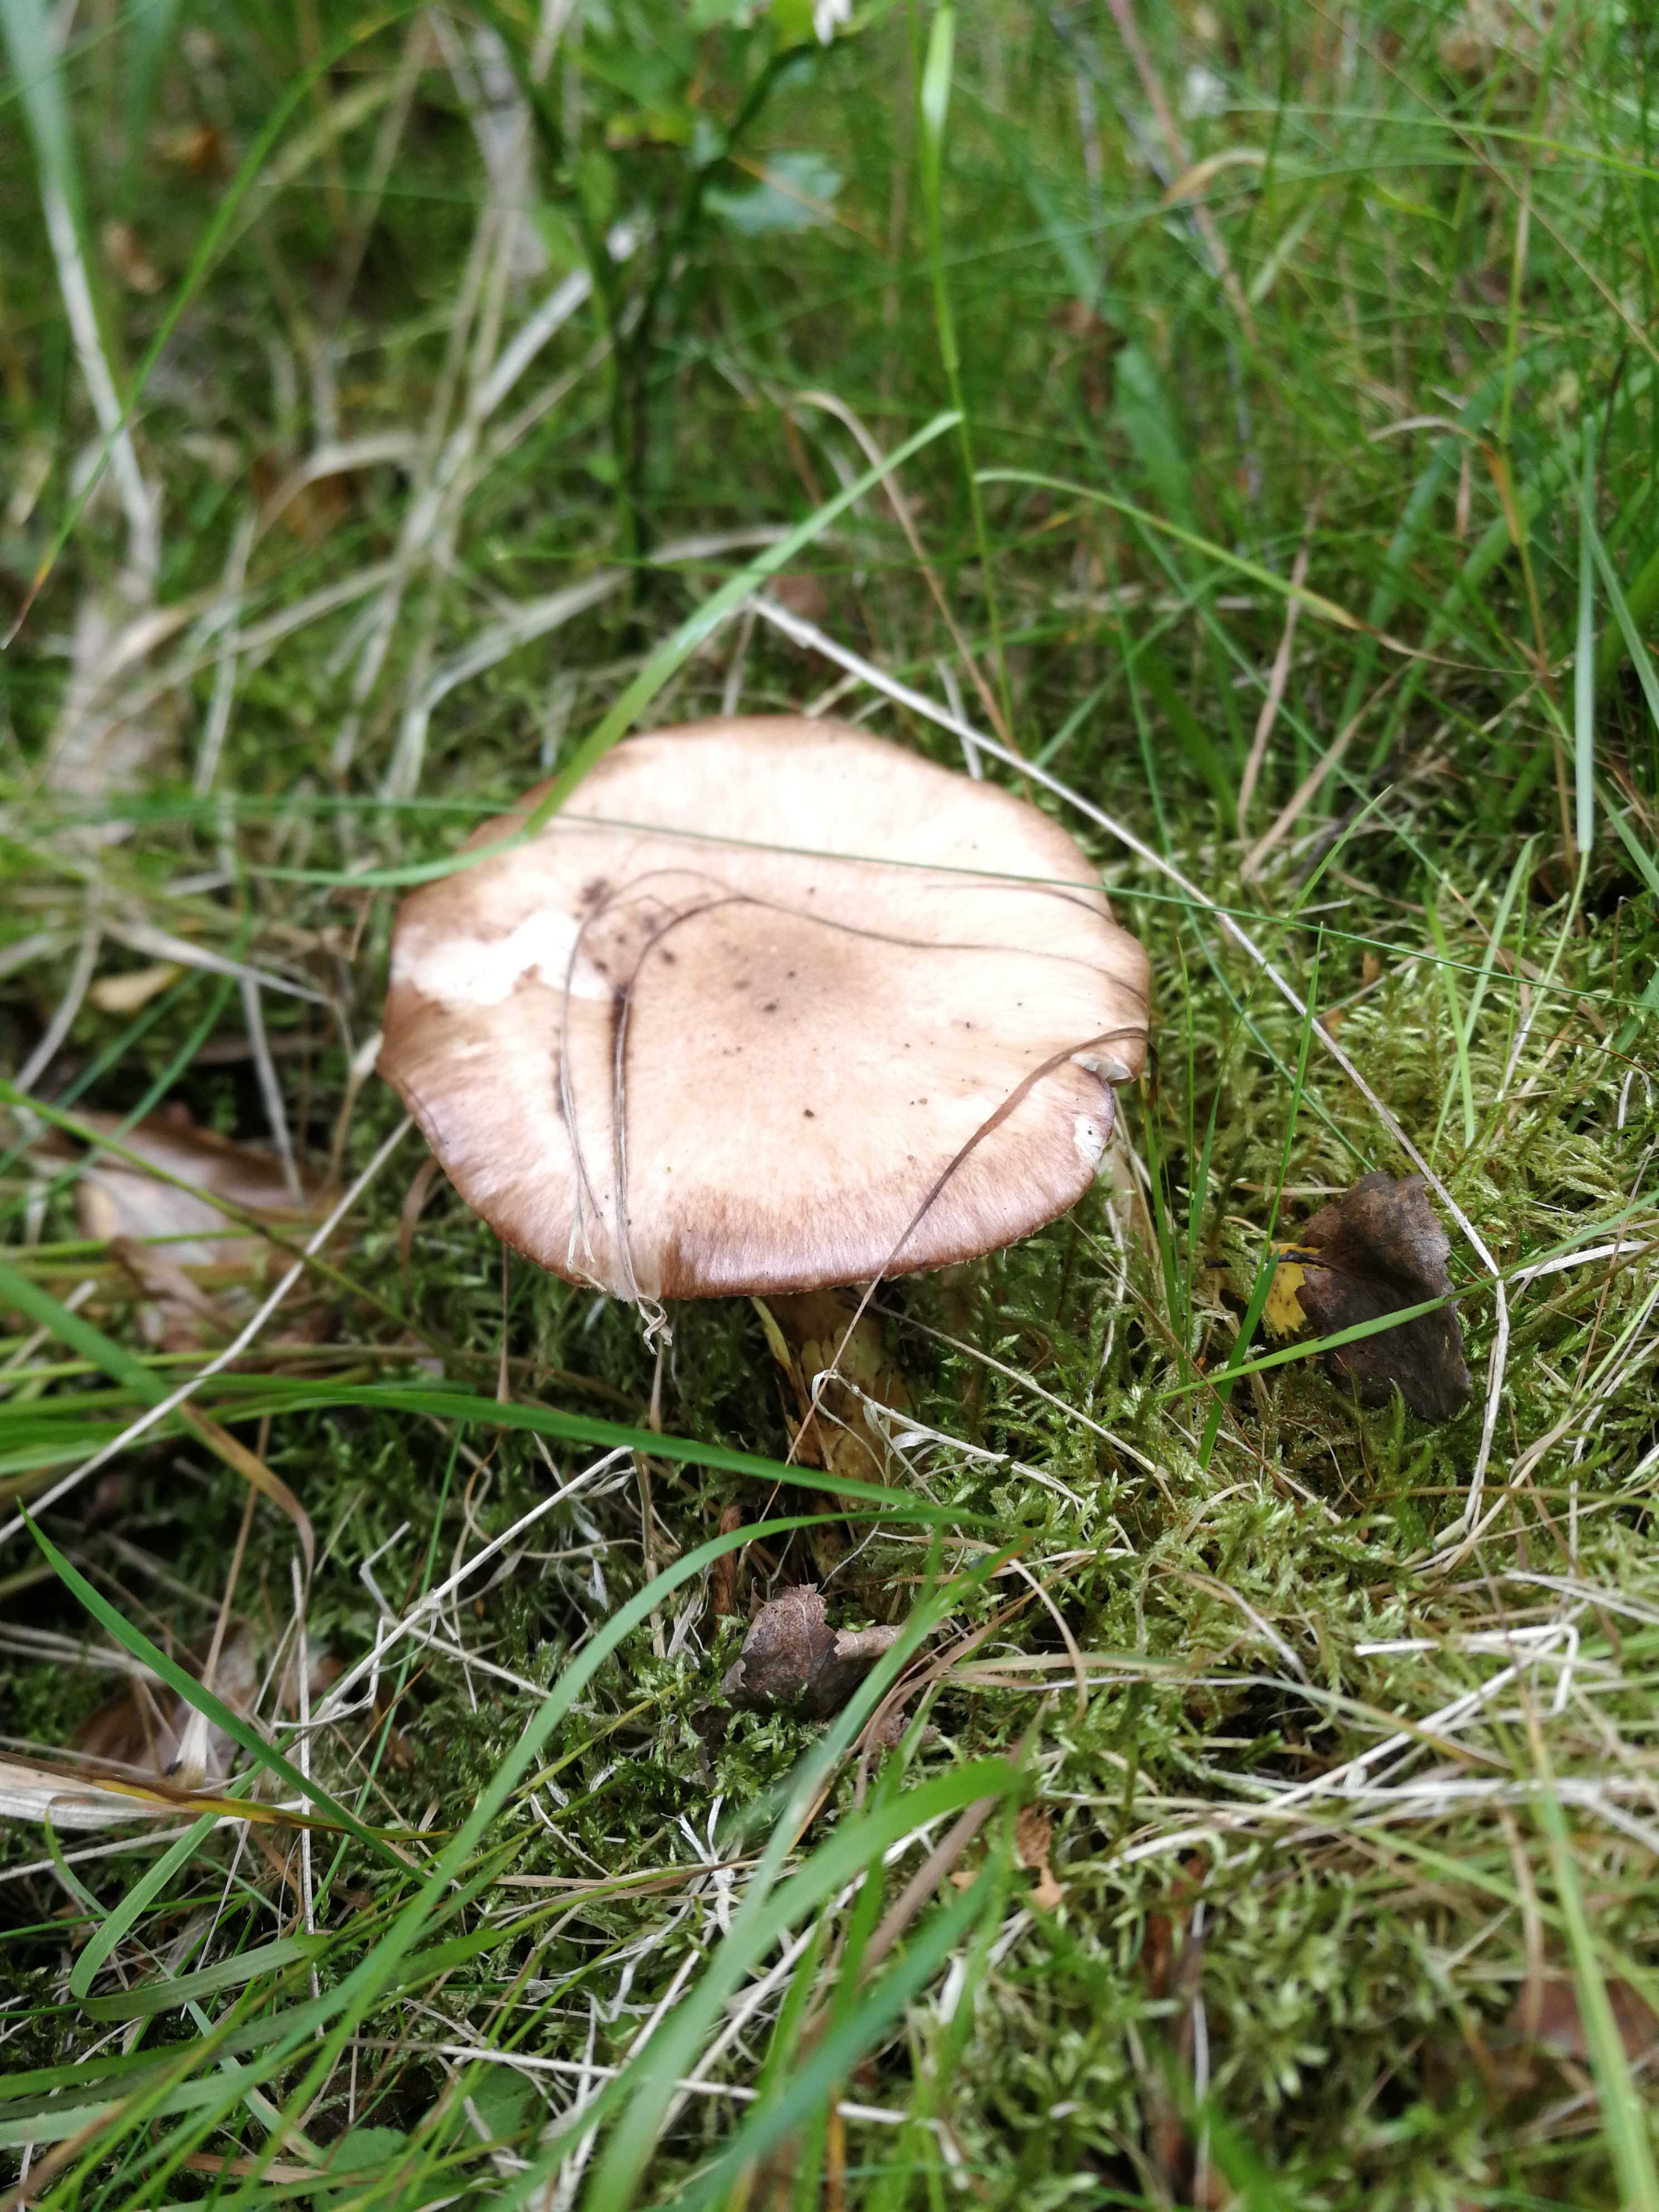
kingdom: Fungi
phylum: Basidiomycota
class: Agaricomycetes
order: Boletales
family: Gomphidiaceae
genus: Gomphidius
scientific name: Gomphidius roseus
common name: rosenrød slimslør
